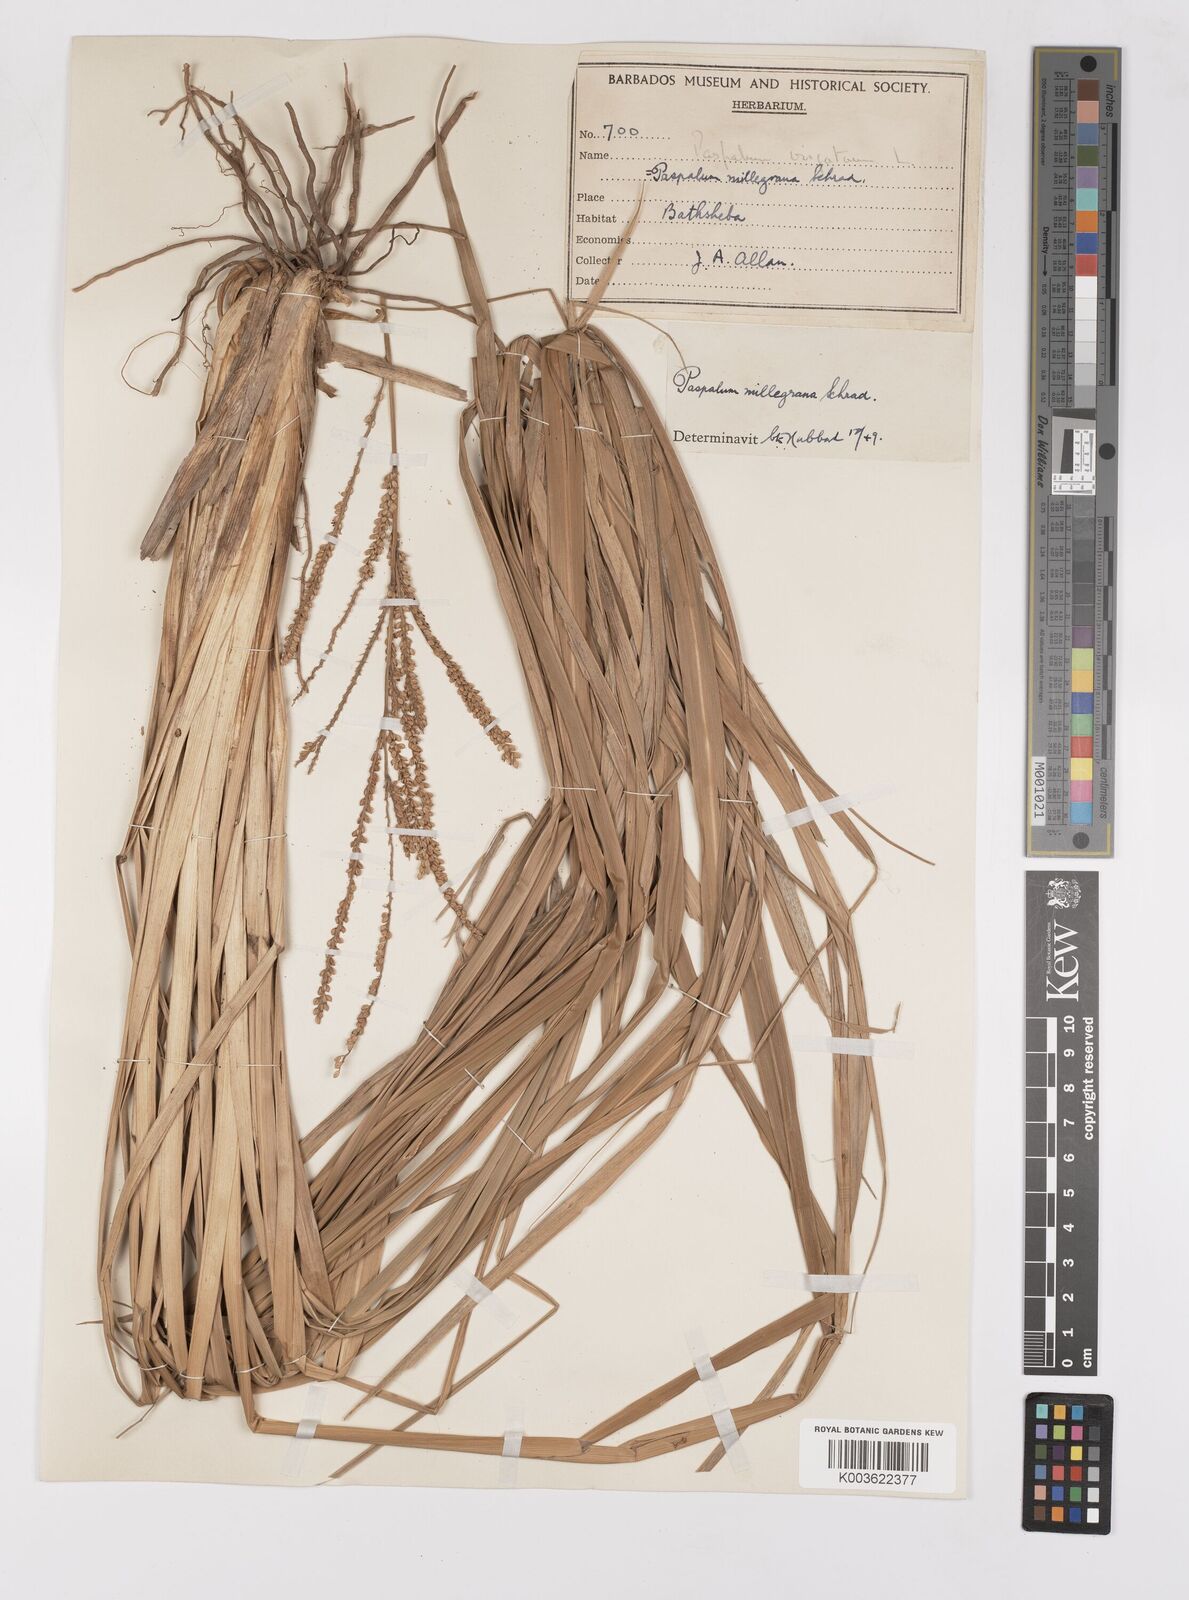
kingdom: Plantae
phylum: Tracheophyta
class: Liliopsida
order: Poales
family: Poaceae
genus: Paspalum
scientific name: Paspalum millegranum
